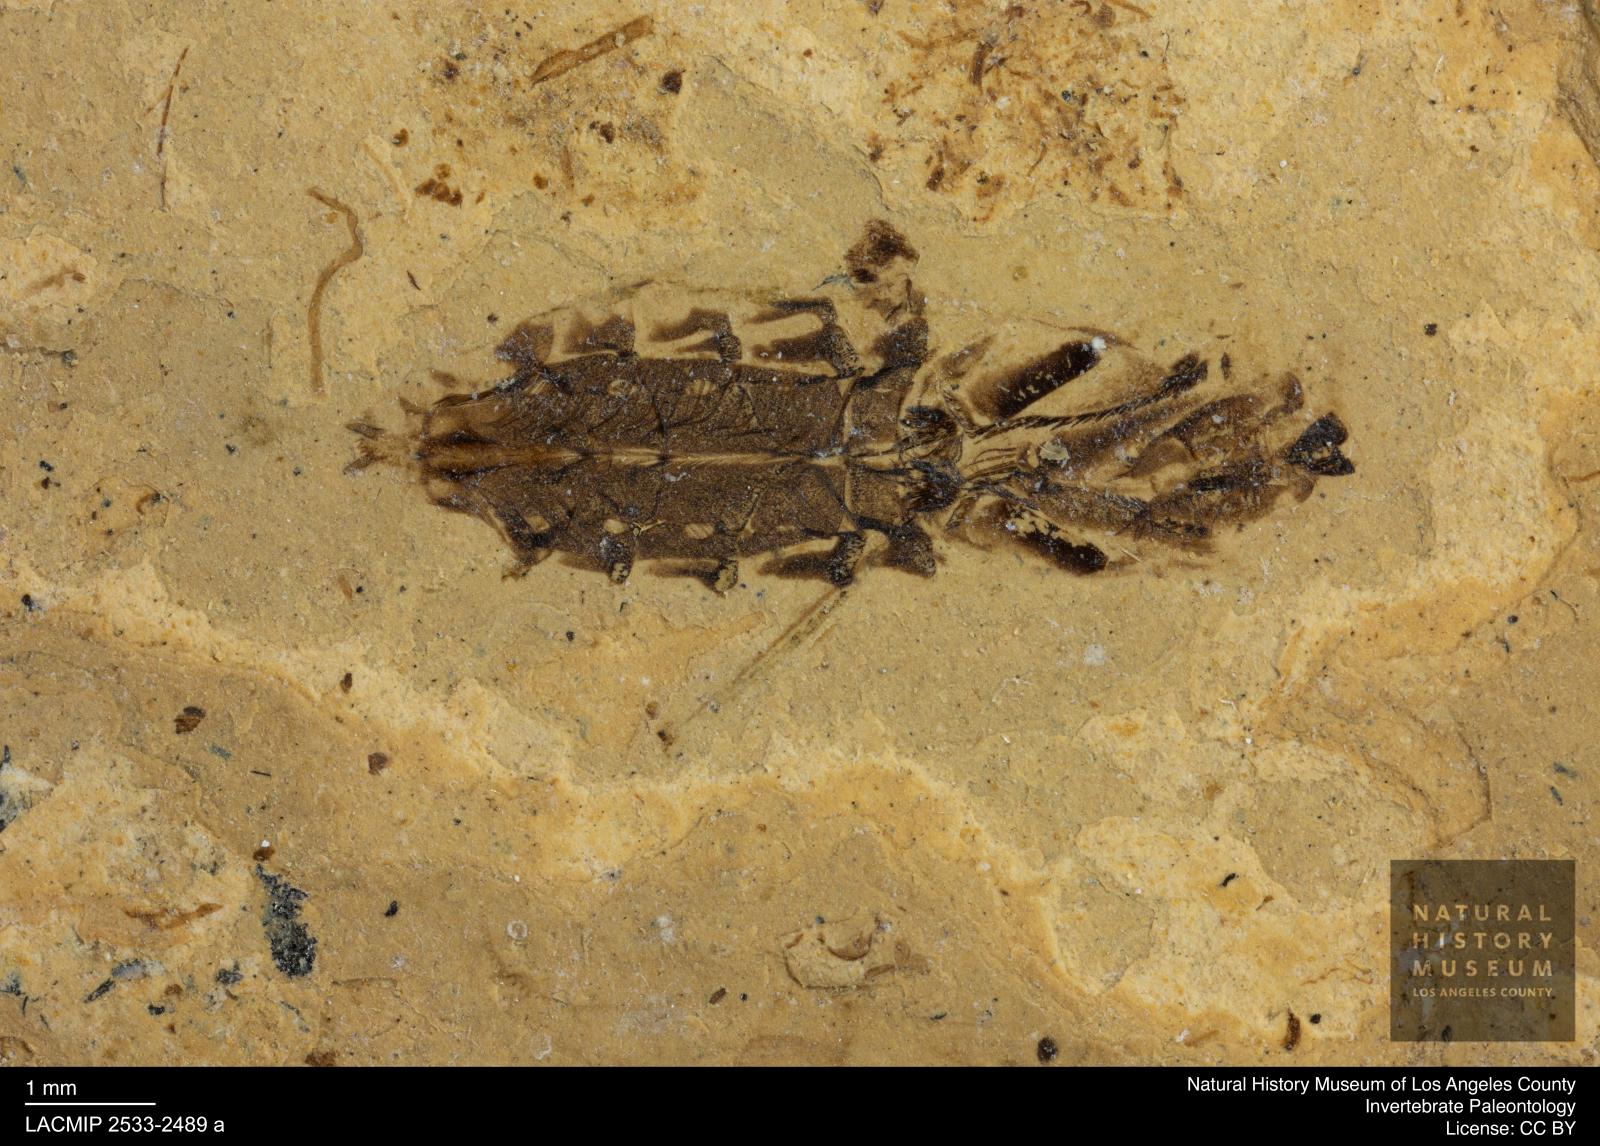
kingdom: Animalia
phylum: Arthropoda
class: Insecta
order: Hemiptera
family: Notonectidae
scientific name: Notonectidae
